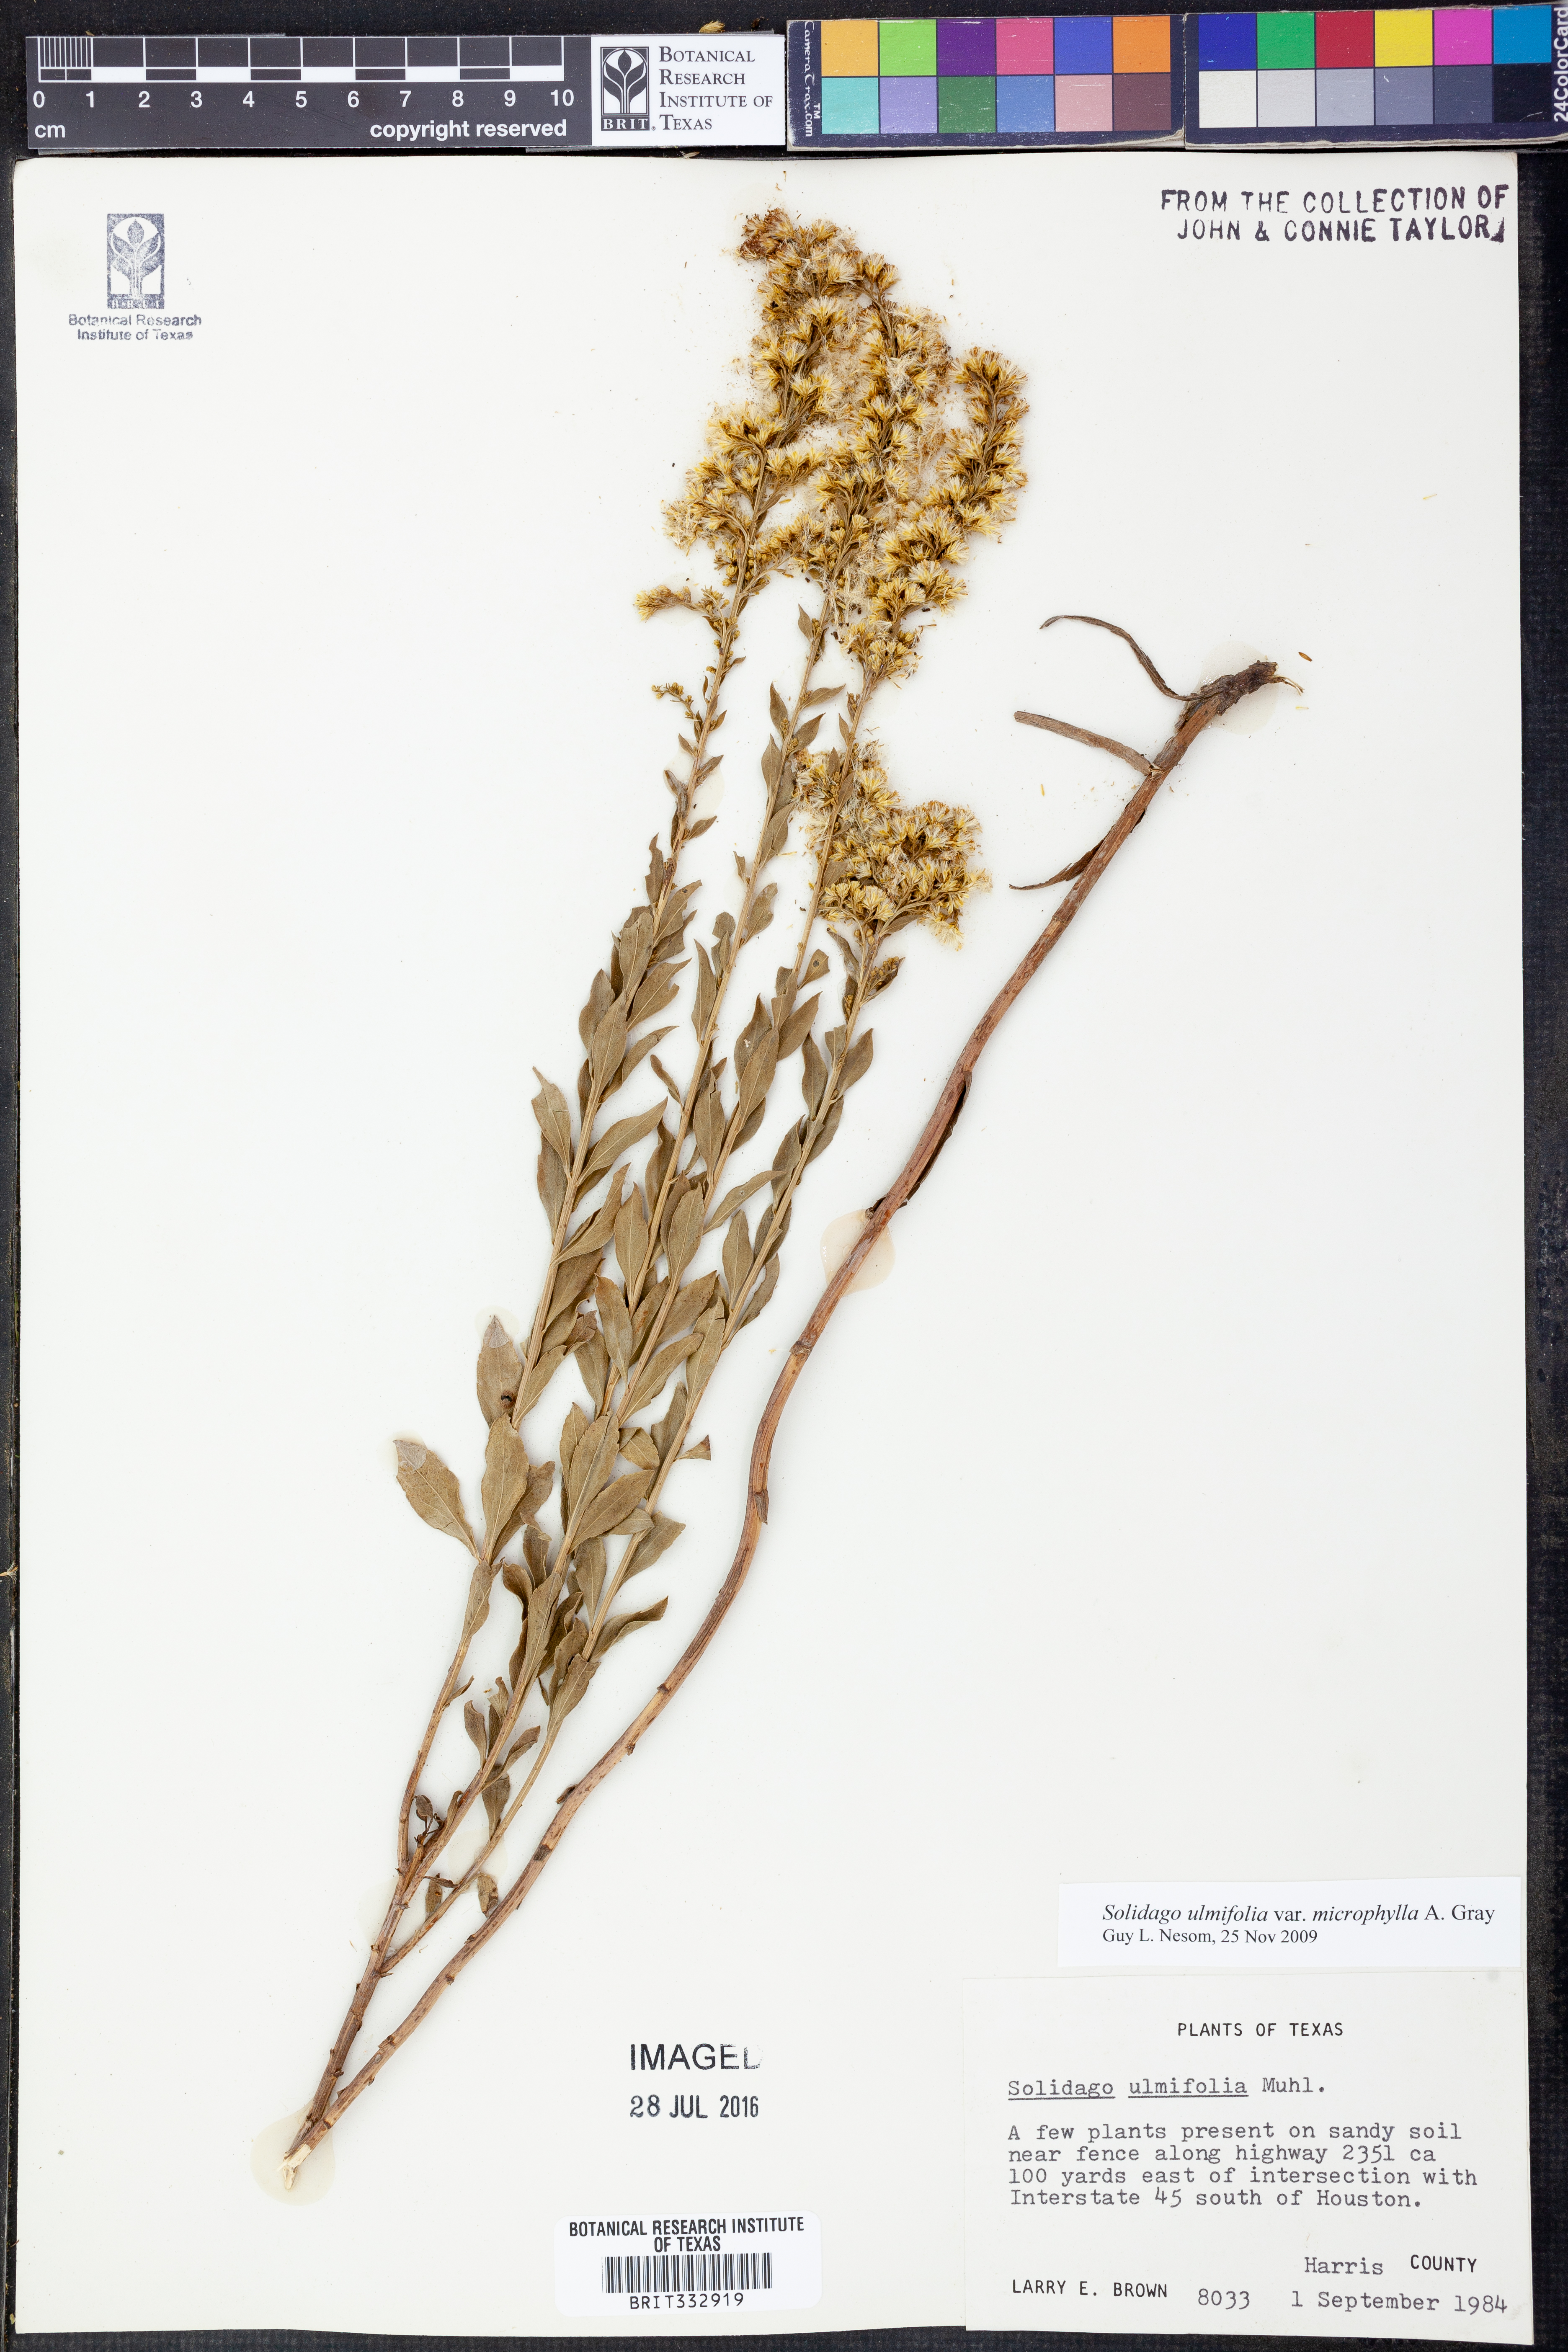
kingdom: Plantae
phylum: Tracheophyta
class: Magnoliopsida
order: Asterales
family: Asteraceae
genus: Solidago
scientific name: Solidago delicatula
